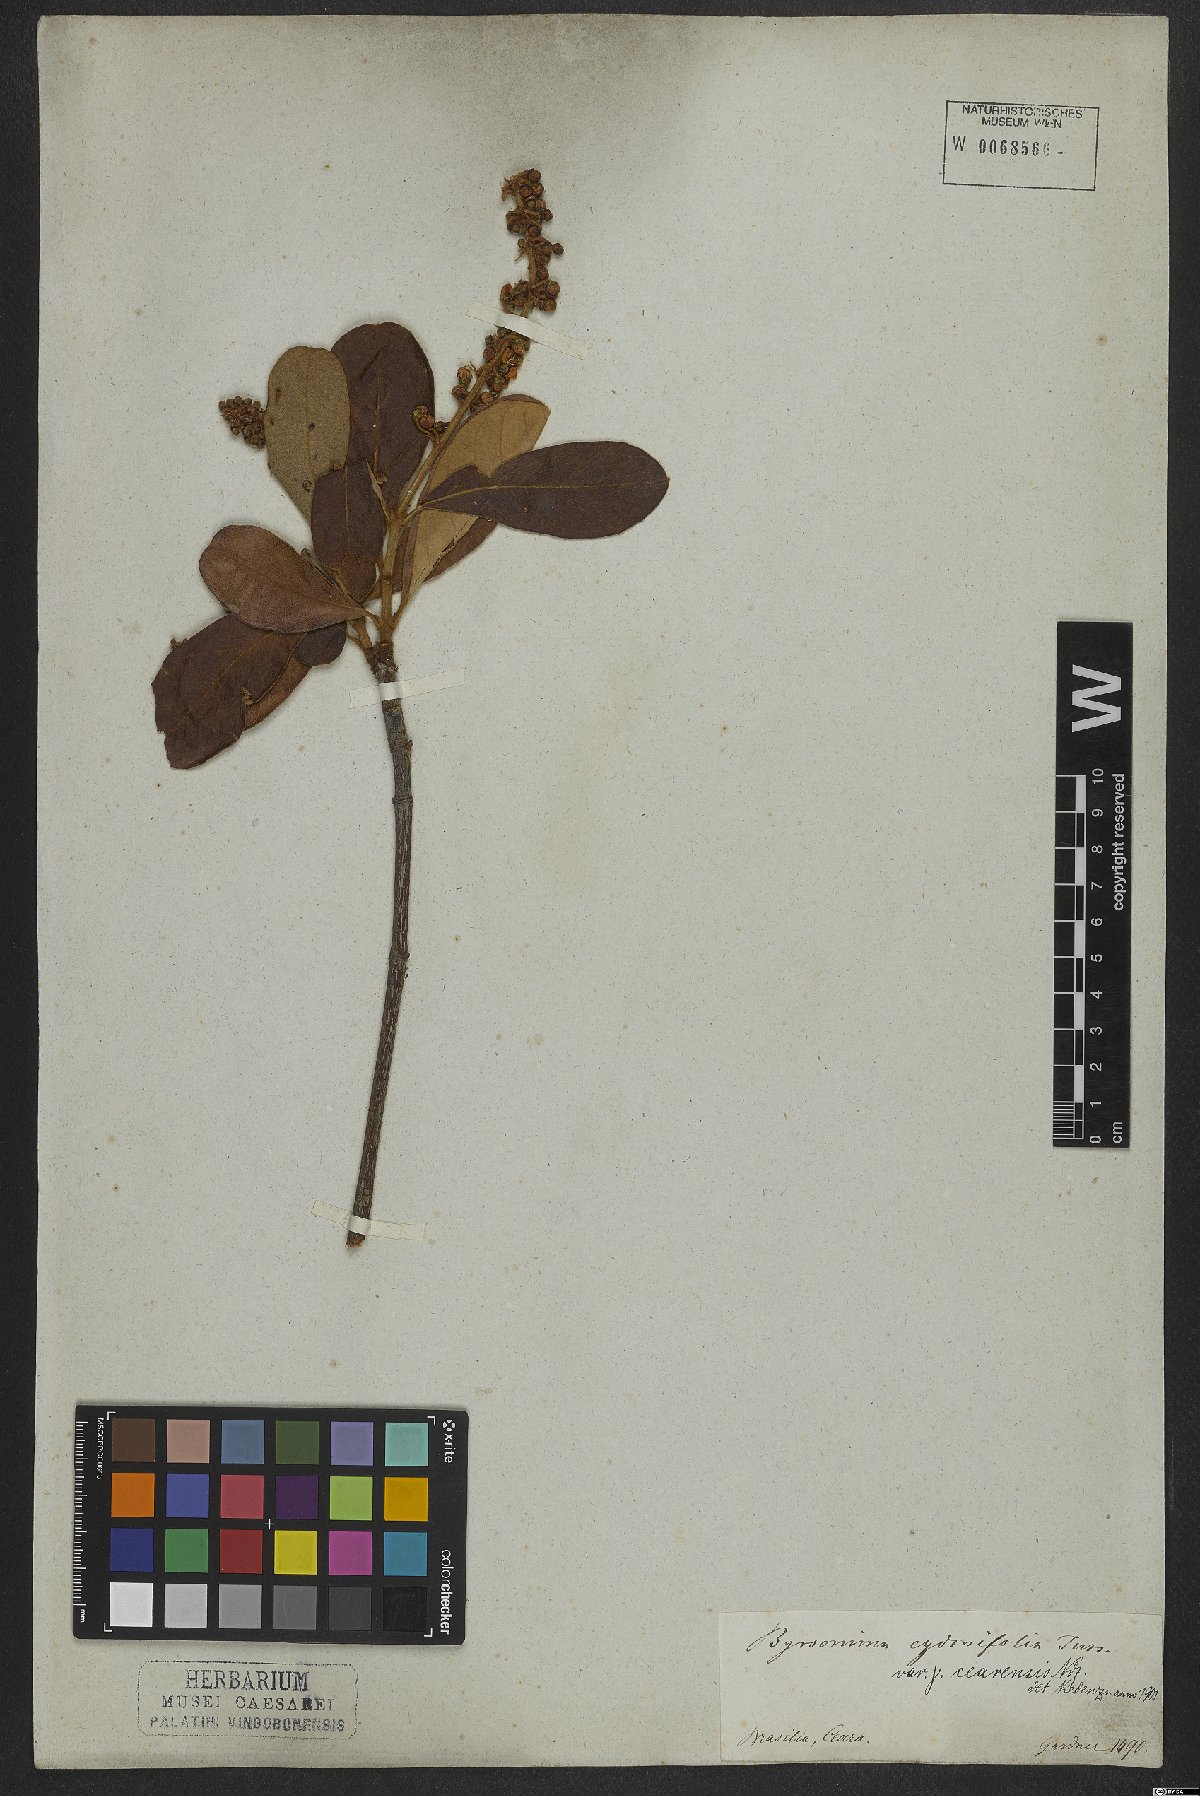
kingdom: Plantae
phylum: Tracheophyta
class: Magnoliopsida
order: Malpighiales
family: Malpighiaceae
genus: Byrsonima
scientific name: Byrsonima cydoniifolia
